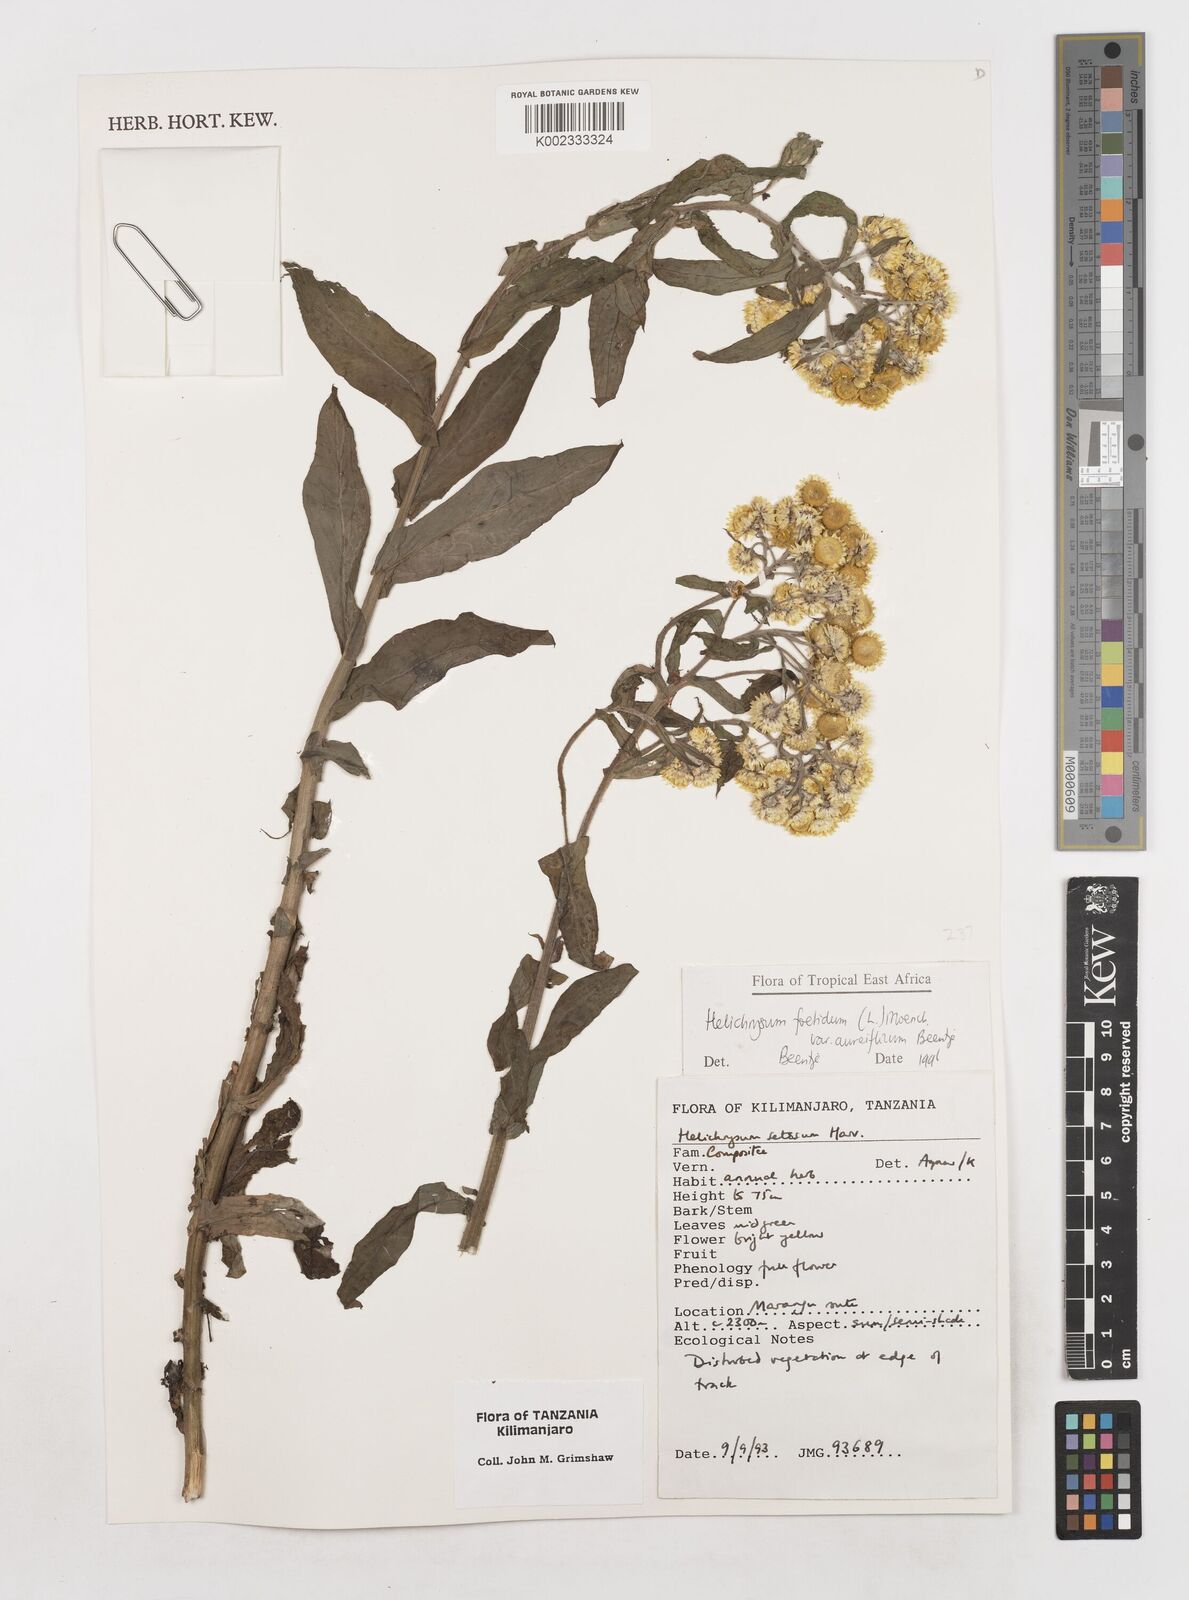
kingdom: Plantae
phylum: Tracheophyta
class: Magnoliopsida
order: Asterales
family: Asteraceae
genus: Helichrysum
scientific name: Helichrysum foetidum
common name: Stinking everlasting
